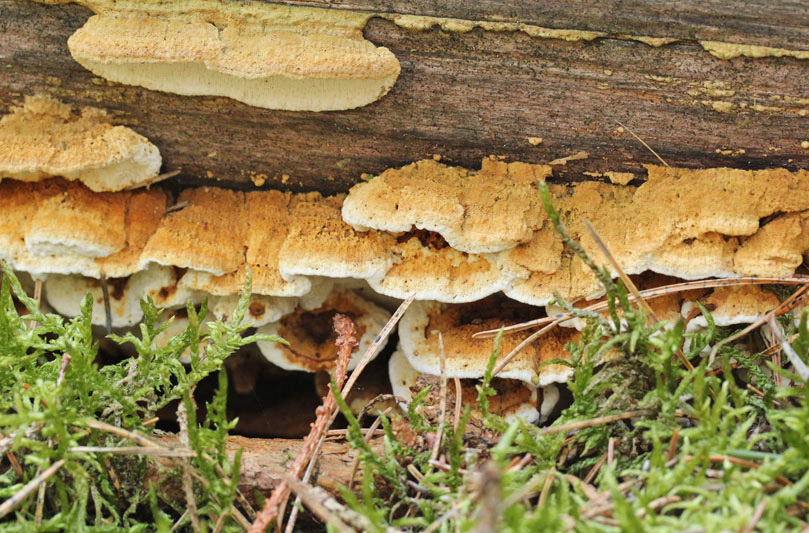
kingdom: Fungi
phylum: Basidiomycota
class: Agaricomycetes
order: Polyporales
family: Fomitopsidaceae
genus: Neoantrodia
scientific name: Neoantrodia serialis
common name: række-sejporesvamp
